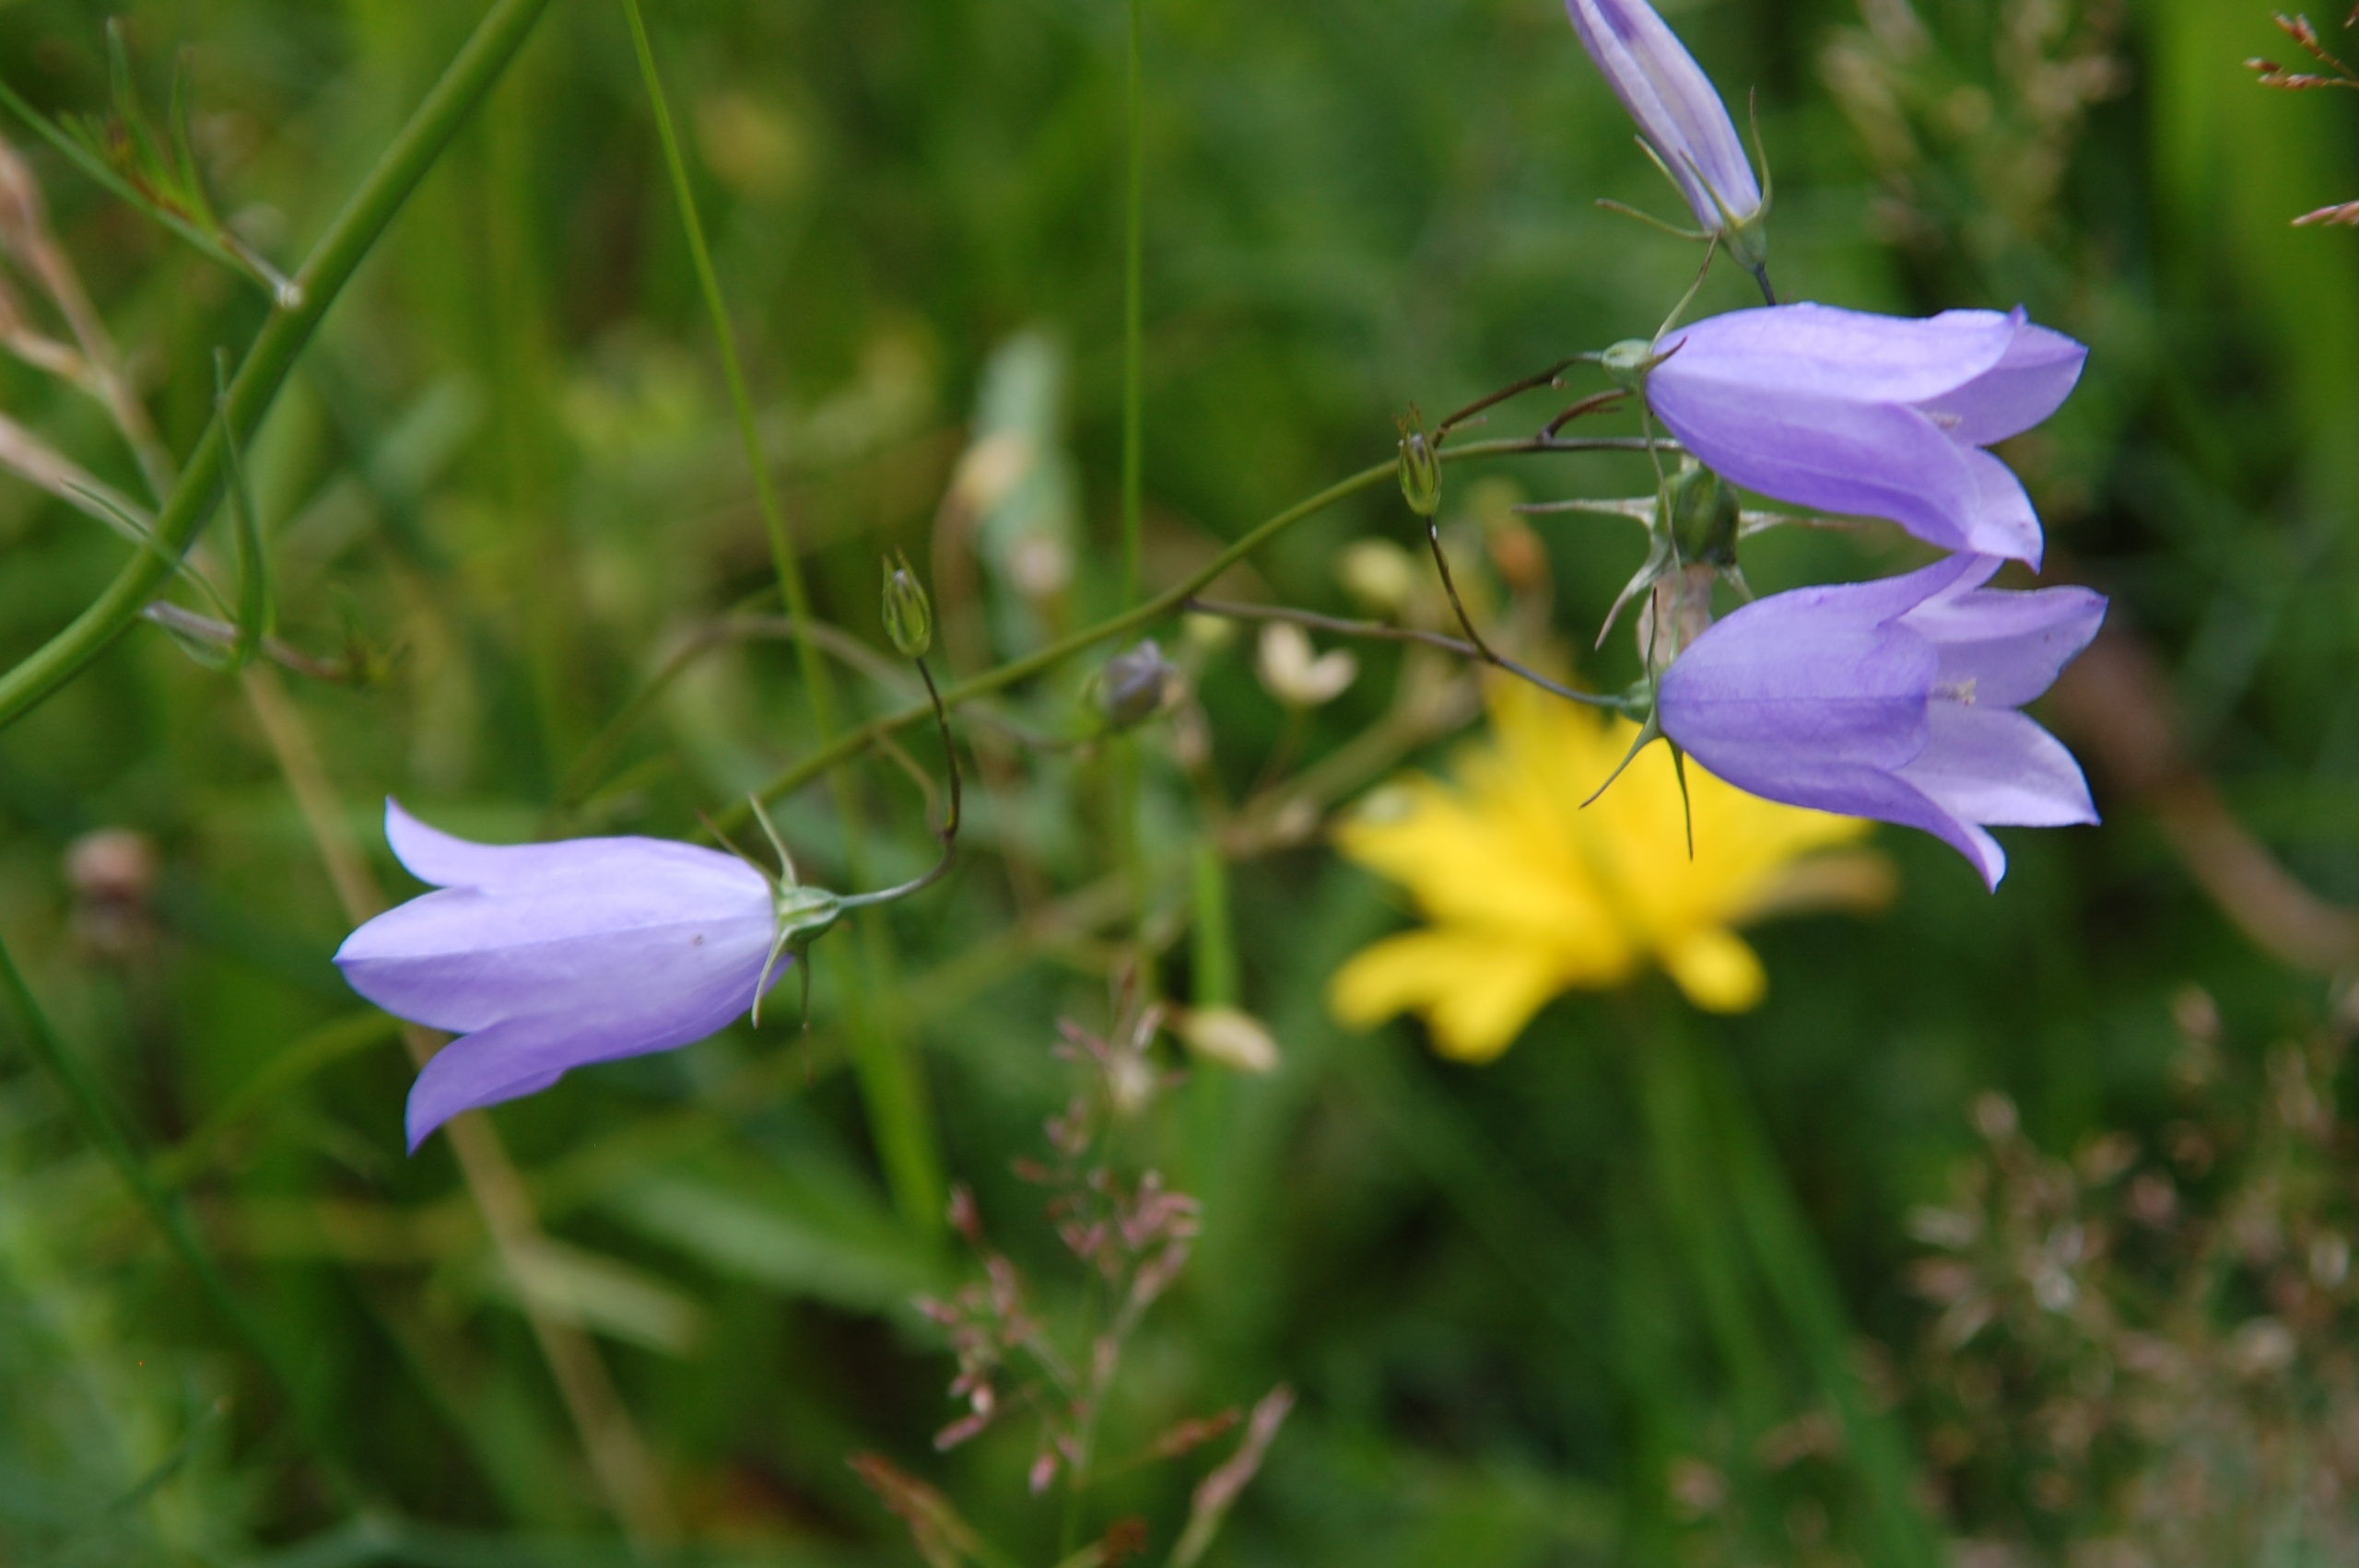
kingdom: Plantae
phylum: Tracheophyta
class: Magnoliopsida
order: Asterales
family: Campanulaceae
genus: Campanula
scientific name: Campanula rotundifolia
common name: Liden klokke
